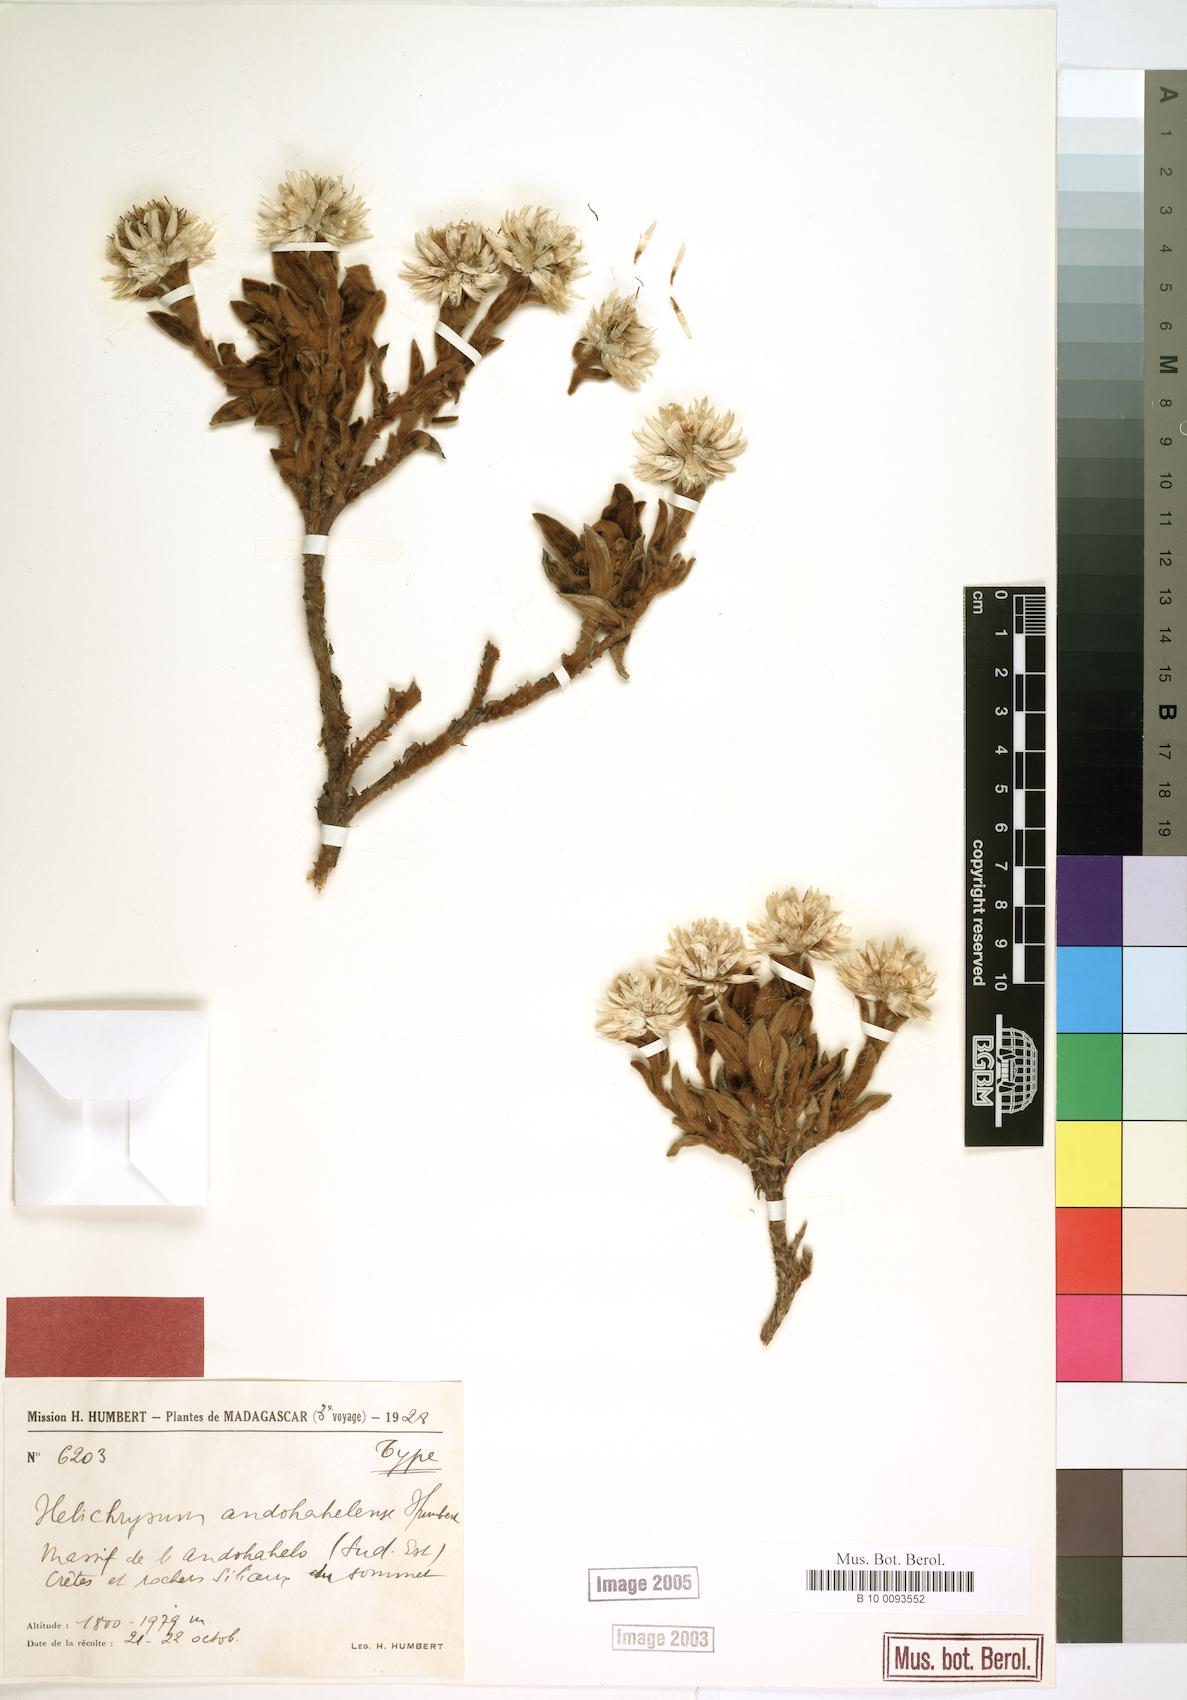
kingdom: Plantae
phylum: Tracheophyta
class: Magnoliopsida
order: Asterales
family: Asteraceae
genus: Helichrysum
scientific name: Helichrysum andohahelense
